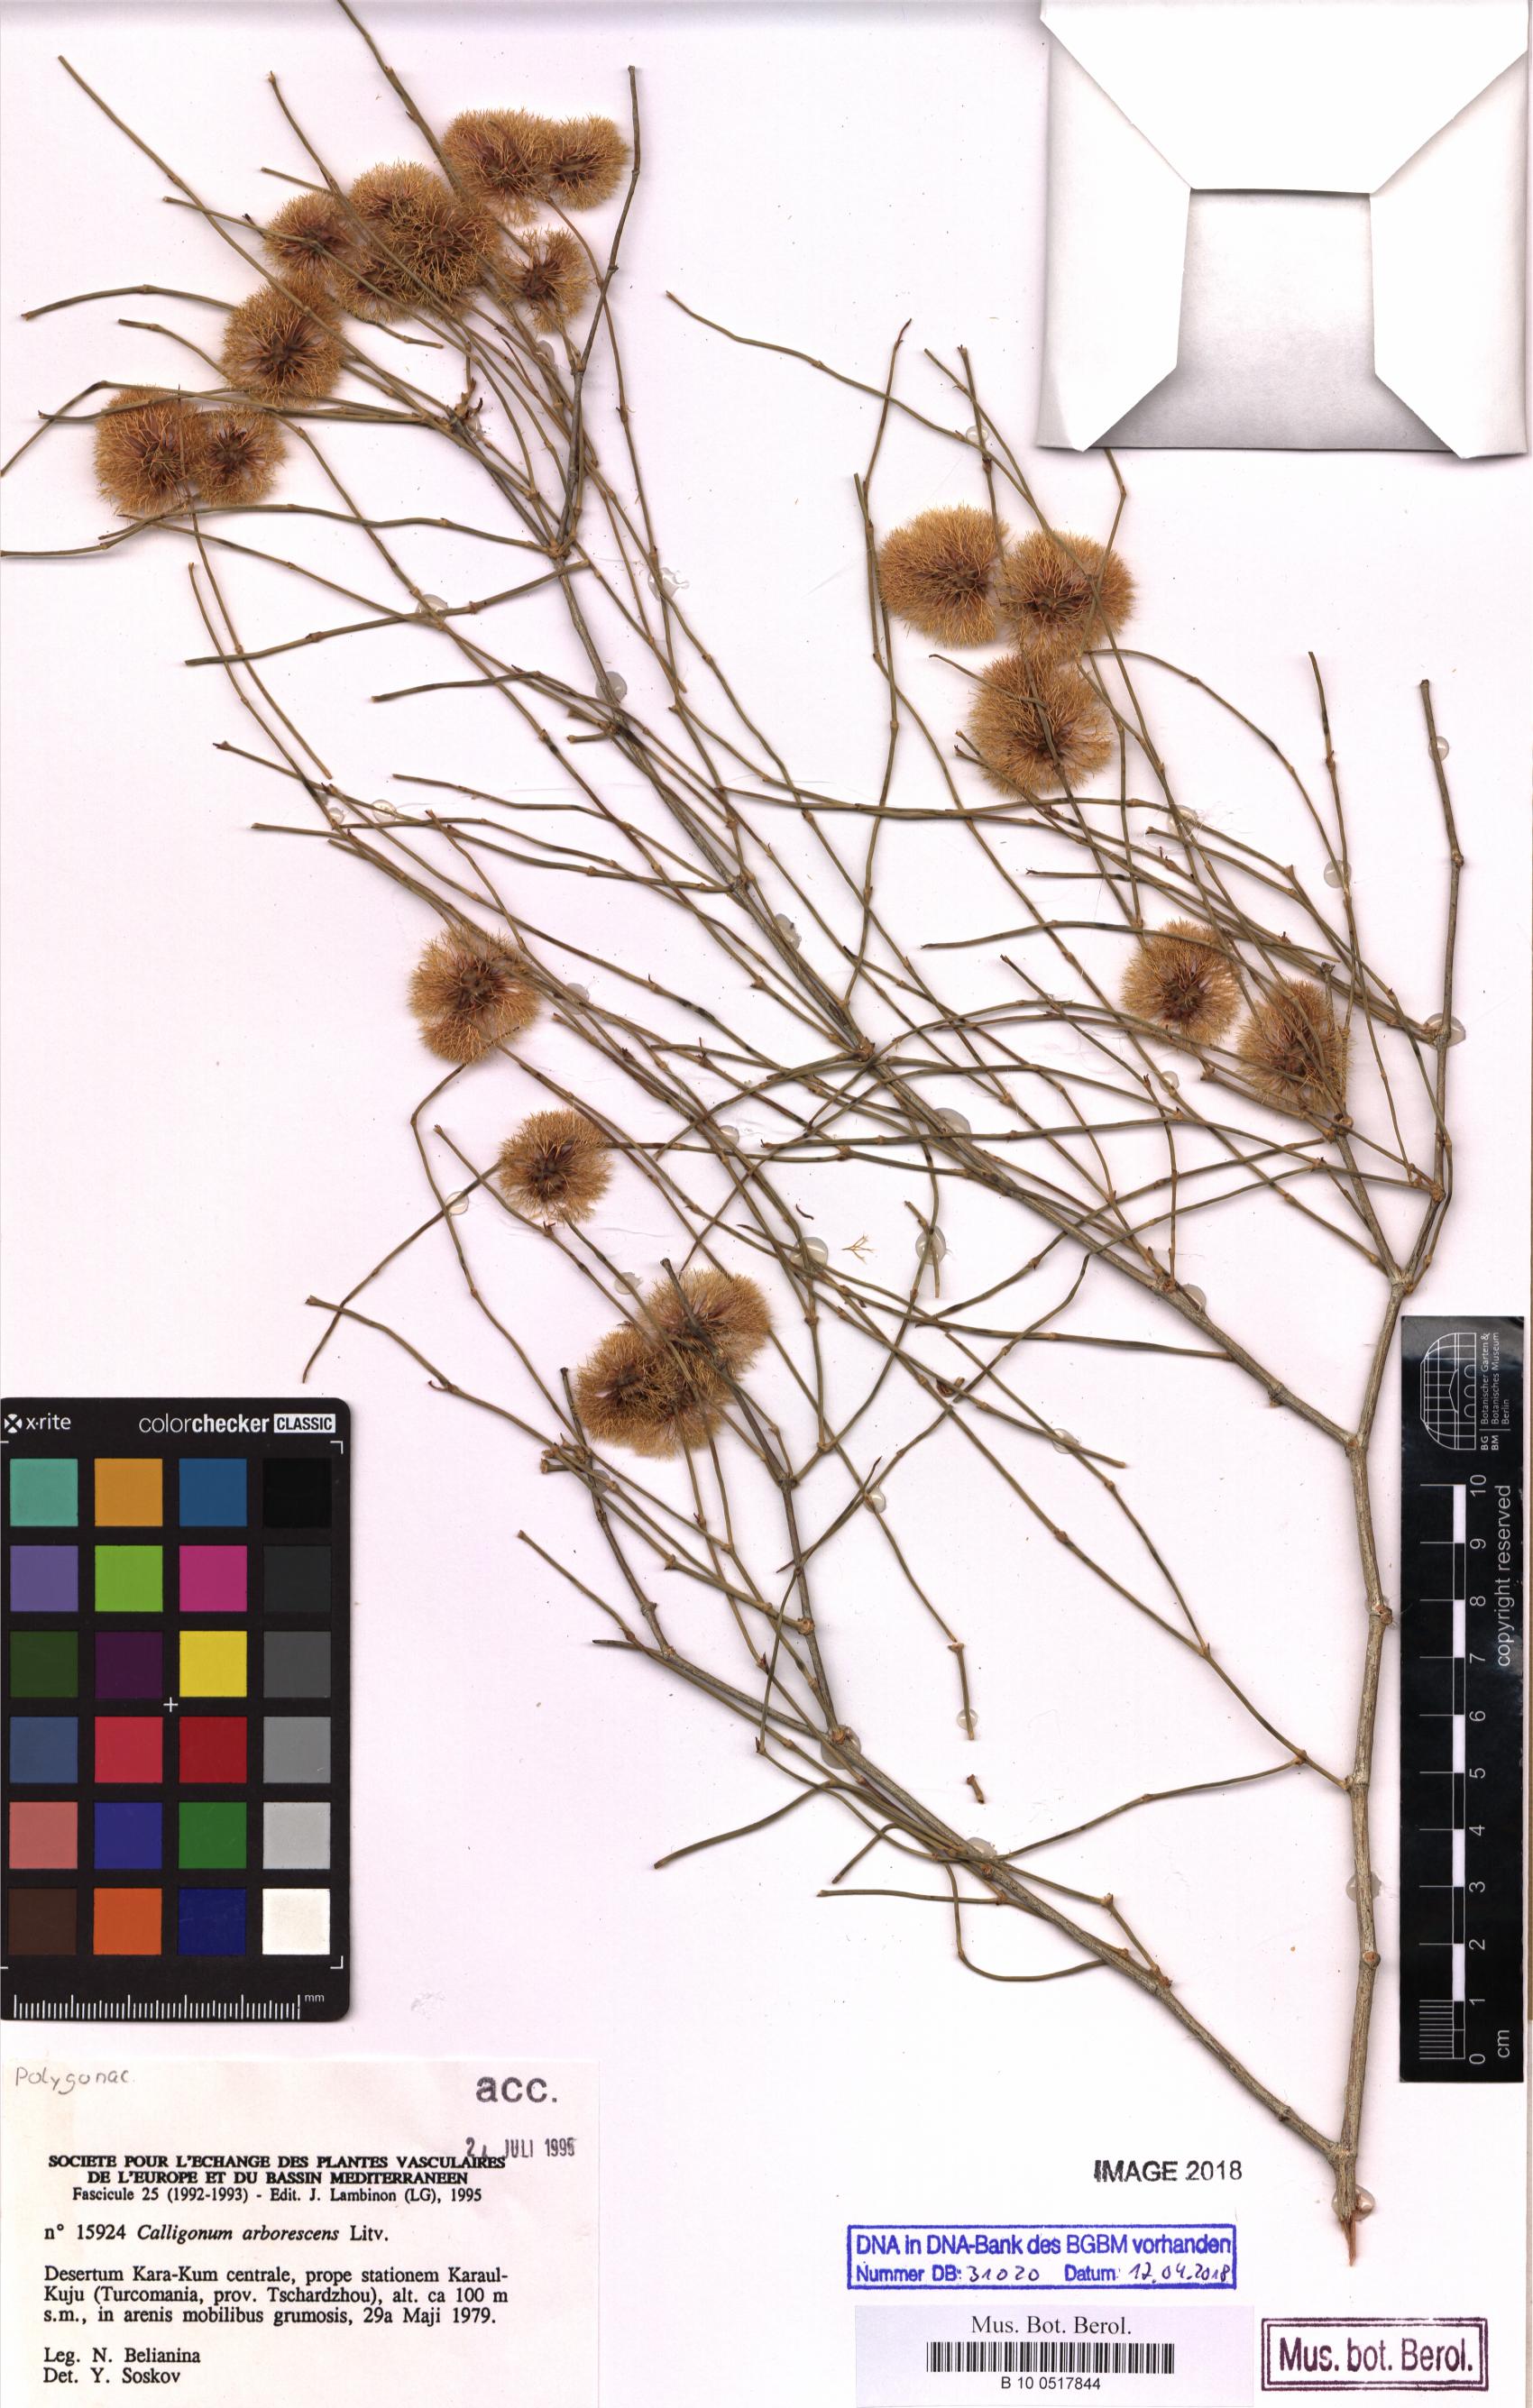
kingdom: Plantae
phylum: Tracheophyta
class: Magnoliopsida
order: Caryophyllales
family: Polygonaceae
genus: Calligonum
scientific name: Calligonum arborescens
